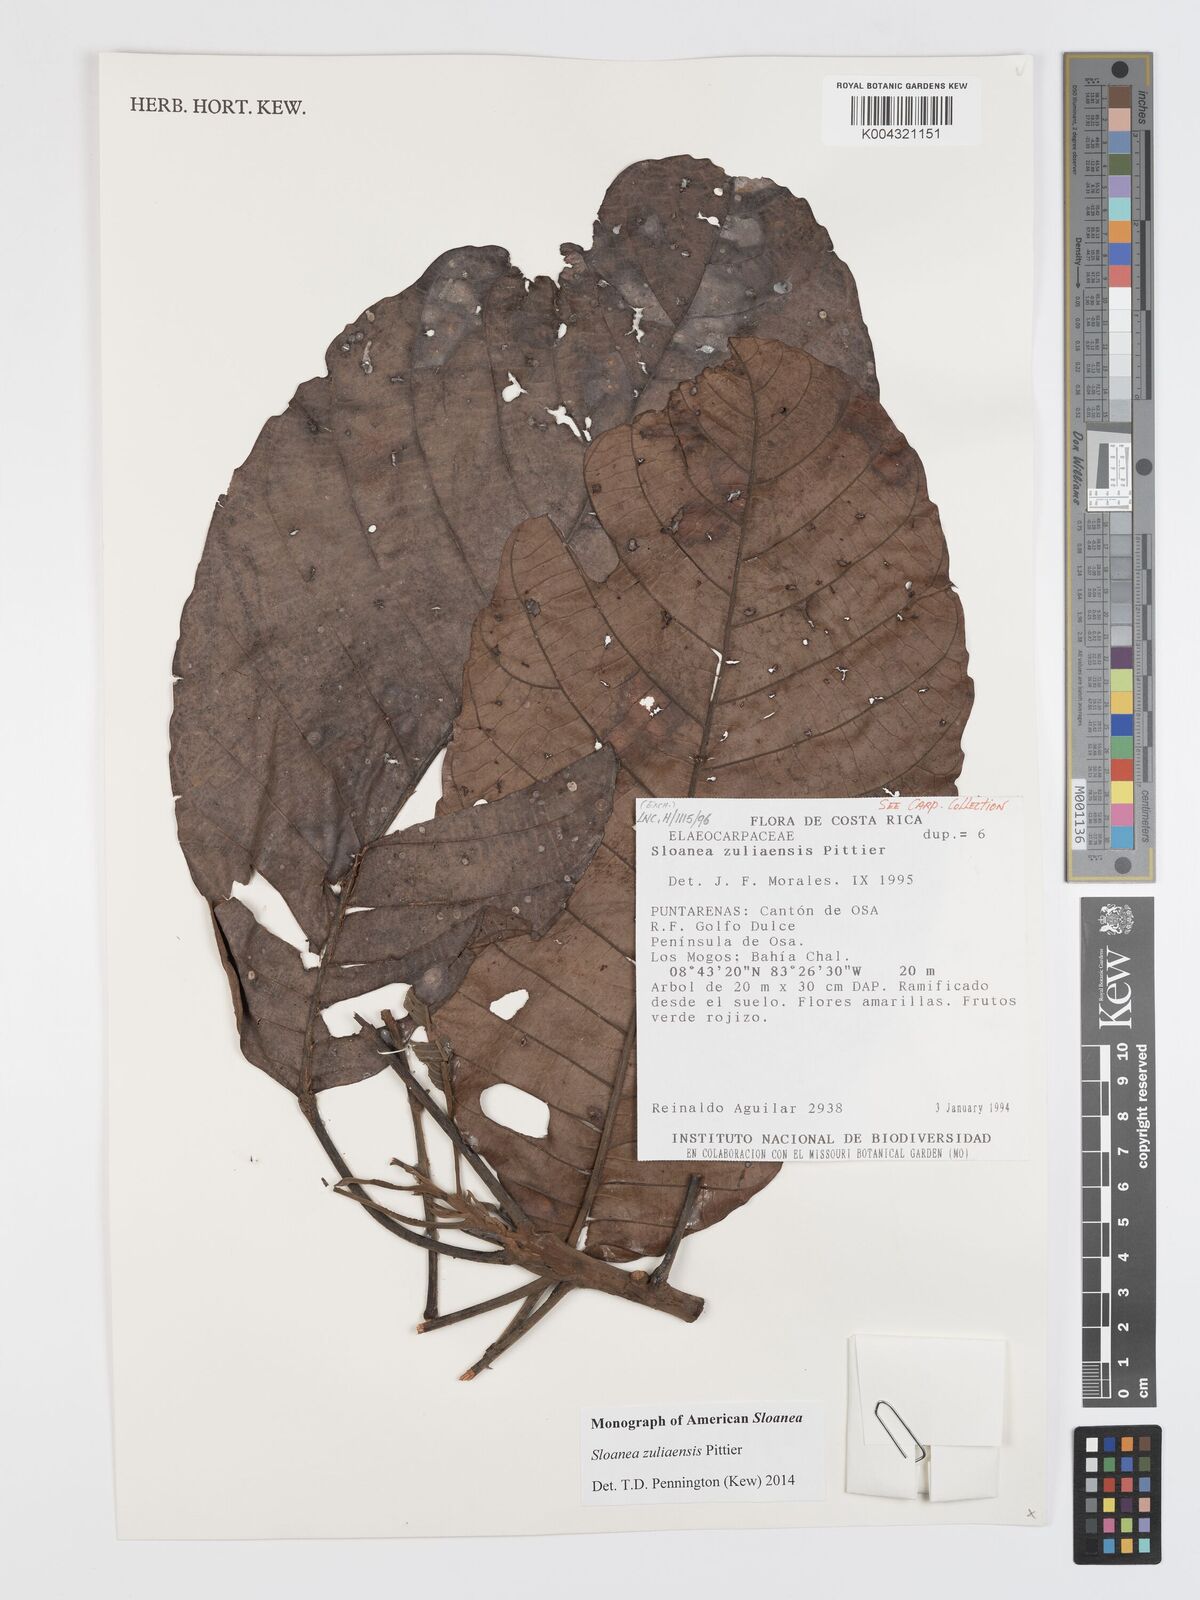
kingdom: Plantae
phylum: Tracheophyta
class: Magnoliopsida
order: Oxalidales
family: Elaeocarpaceae
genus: Sloanea
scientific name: Sloanea zuliaensis
